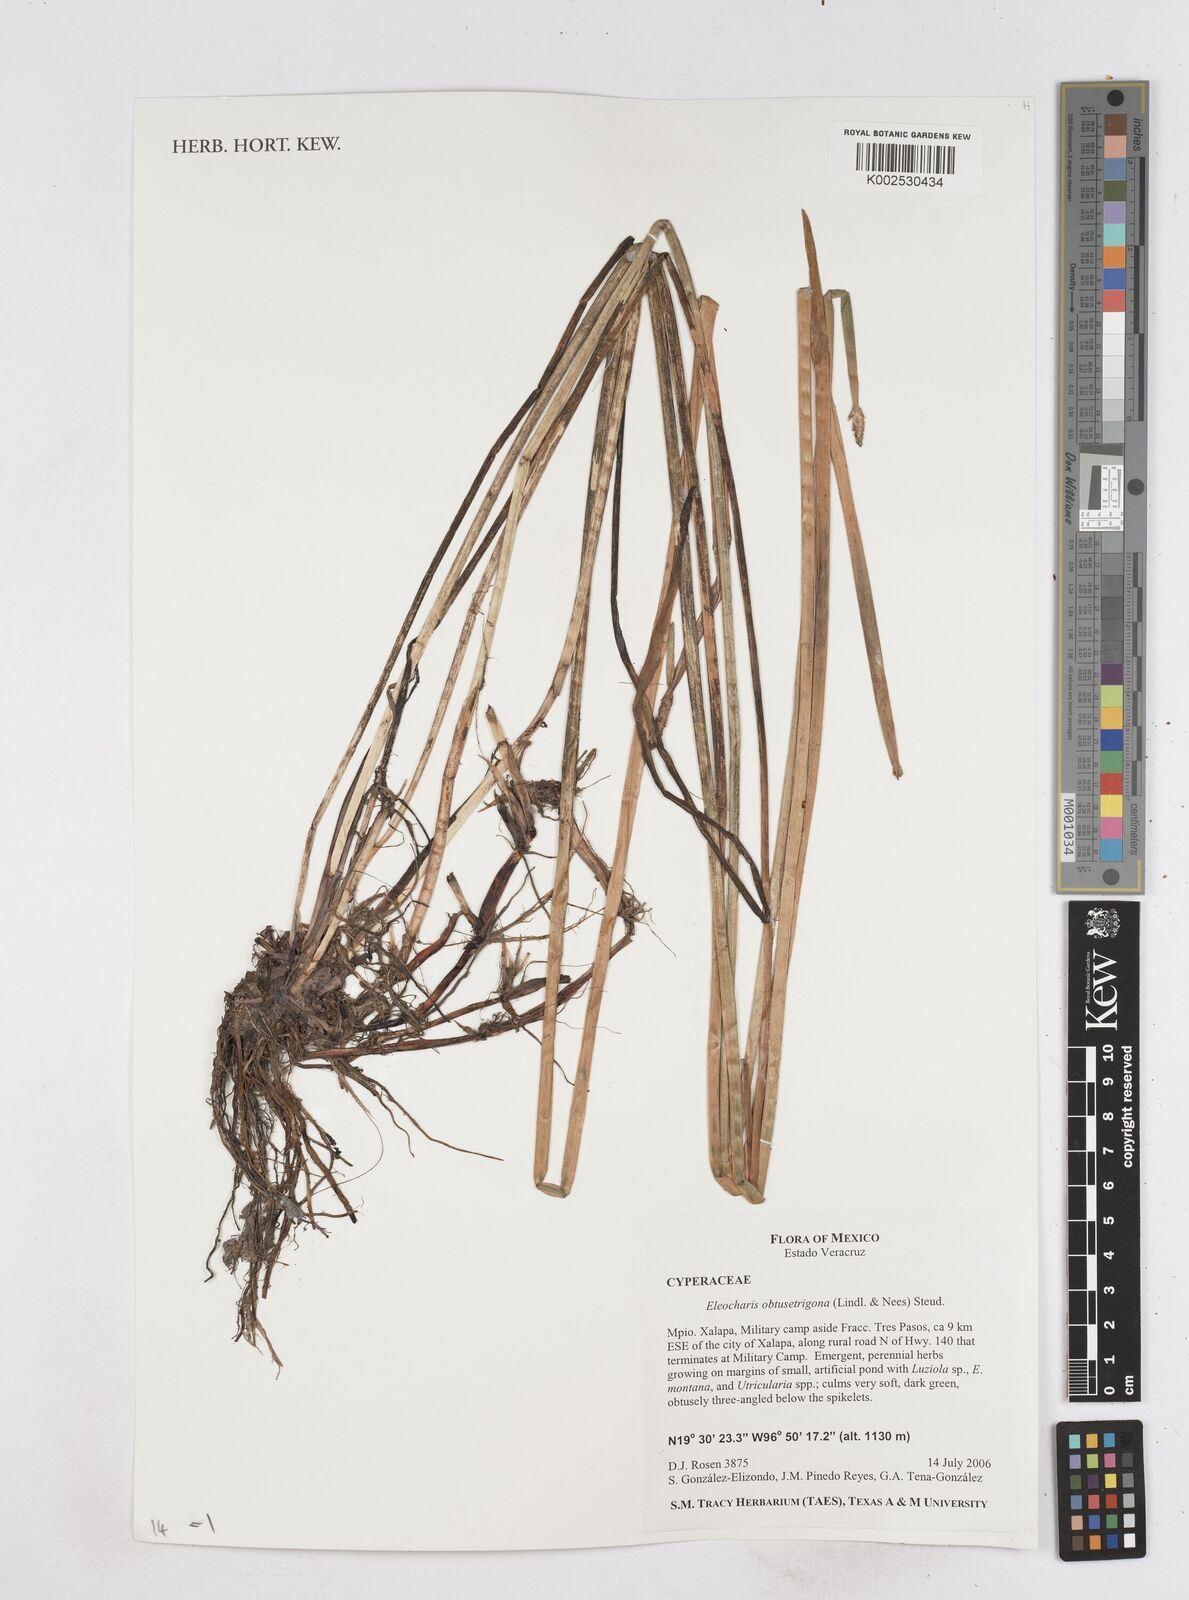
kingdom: Plantae
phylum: Tracheophyta
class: Liliopsida
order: Poales
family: Cyperaceae
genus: Eleocharis
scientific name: Eleocharis acutangula
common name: Acute spikerush
